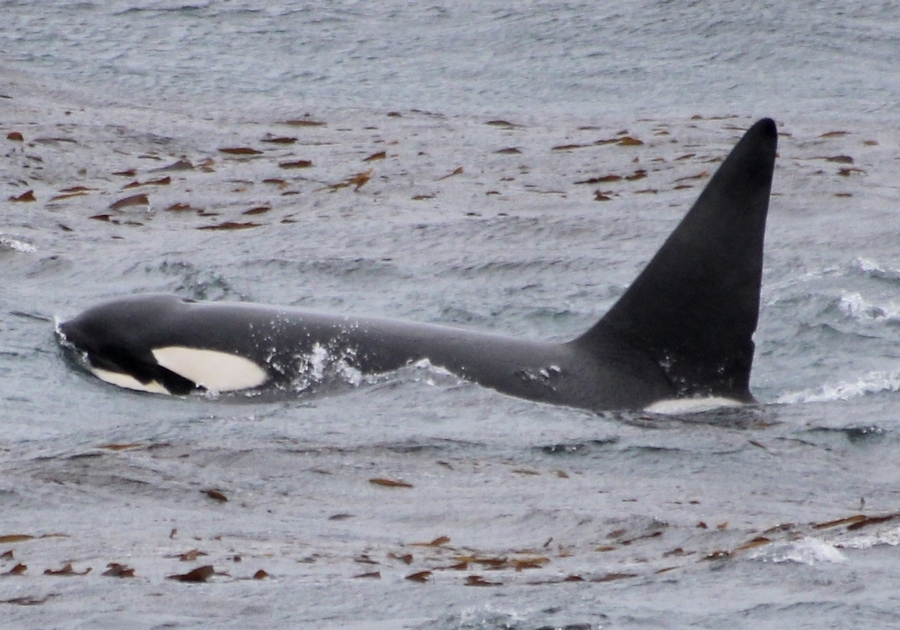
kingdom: Animalia
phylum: Chordata
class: Mammalia
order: Cetacea
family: Delphinidae
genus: Orcinus
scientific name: Orcinus orca
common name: Killer Whale
